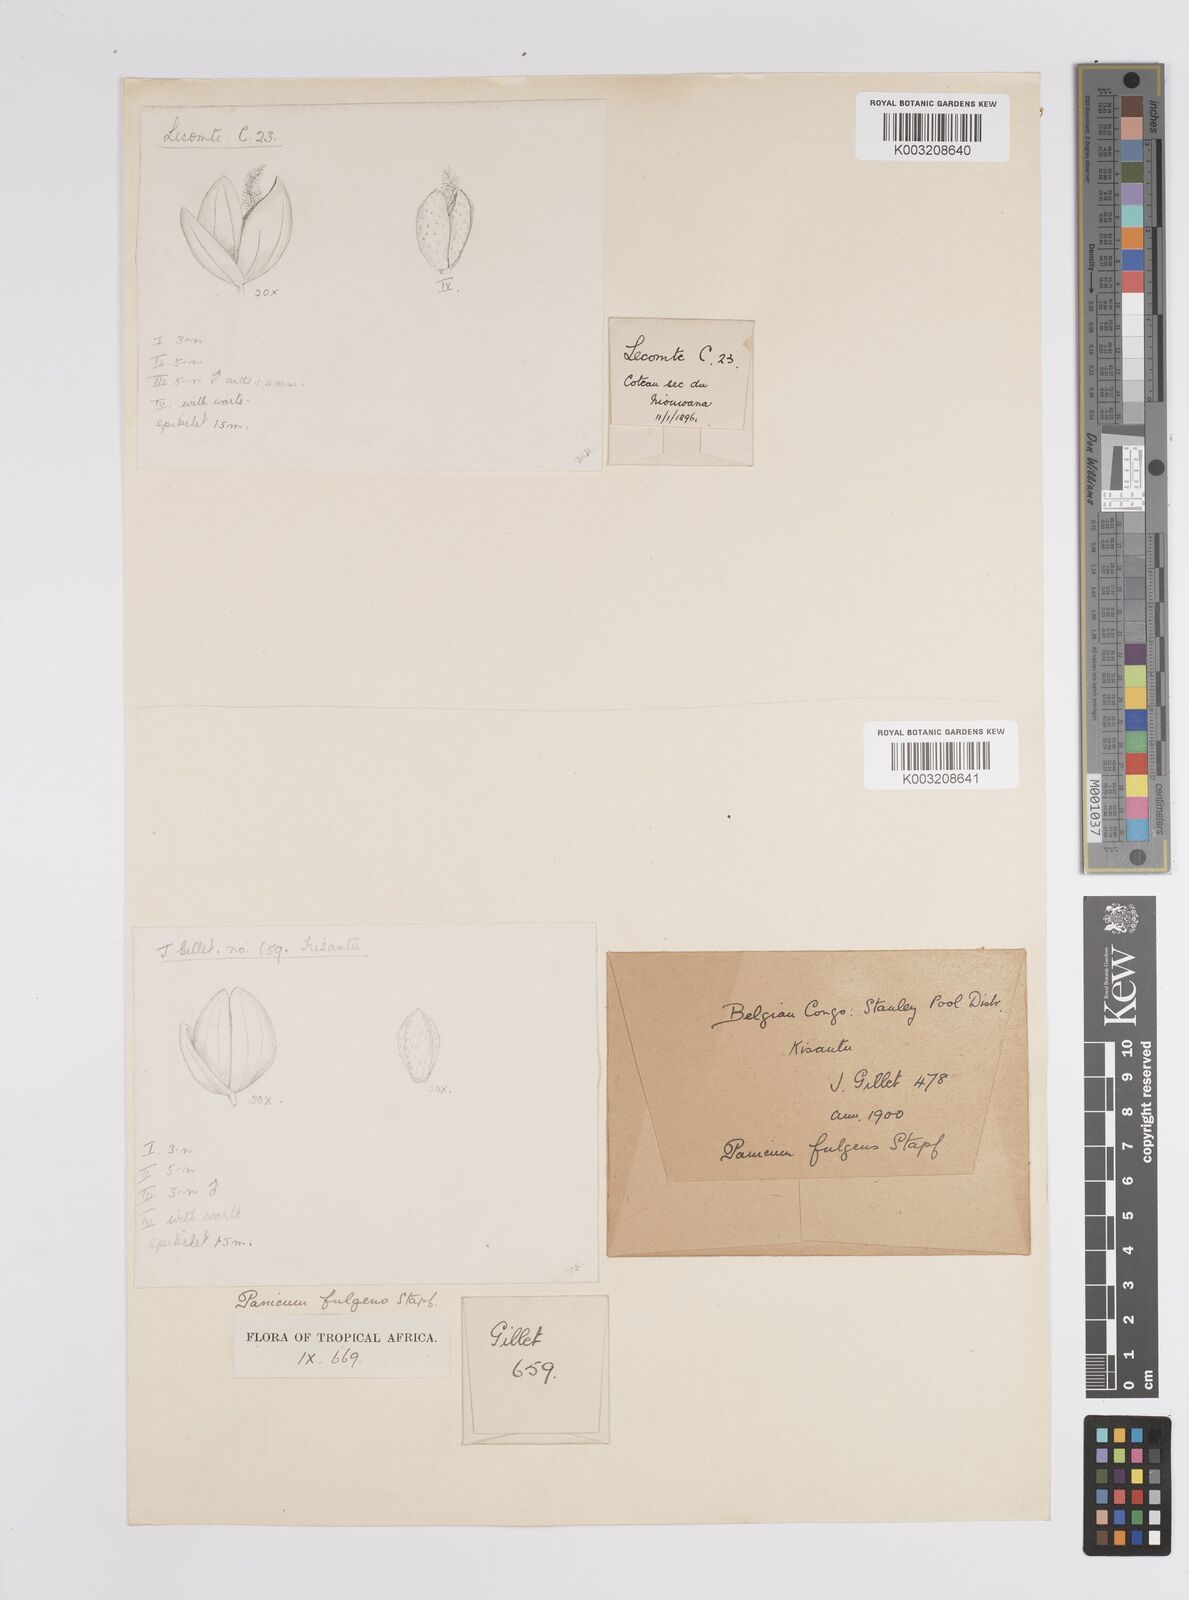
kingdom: Plantae
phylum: Tracheophyta
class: Liliopsida
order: Poales
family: Poaceae
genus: Trichanthecium
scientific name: Trichanthecium nervatum
